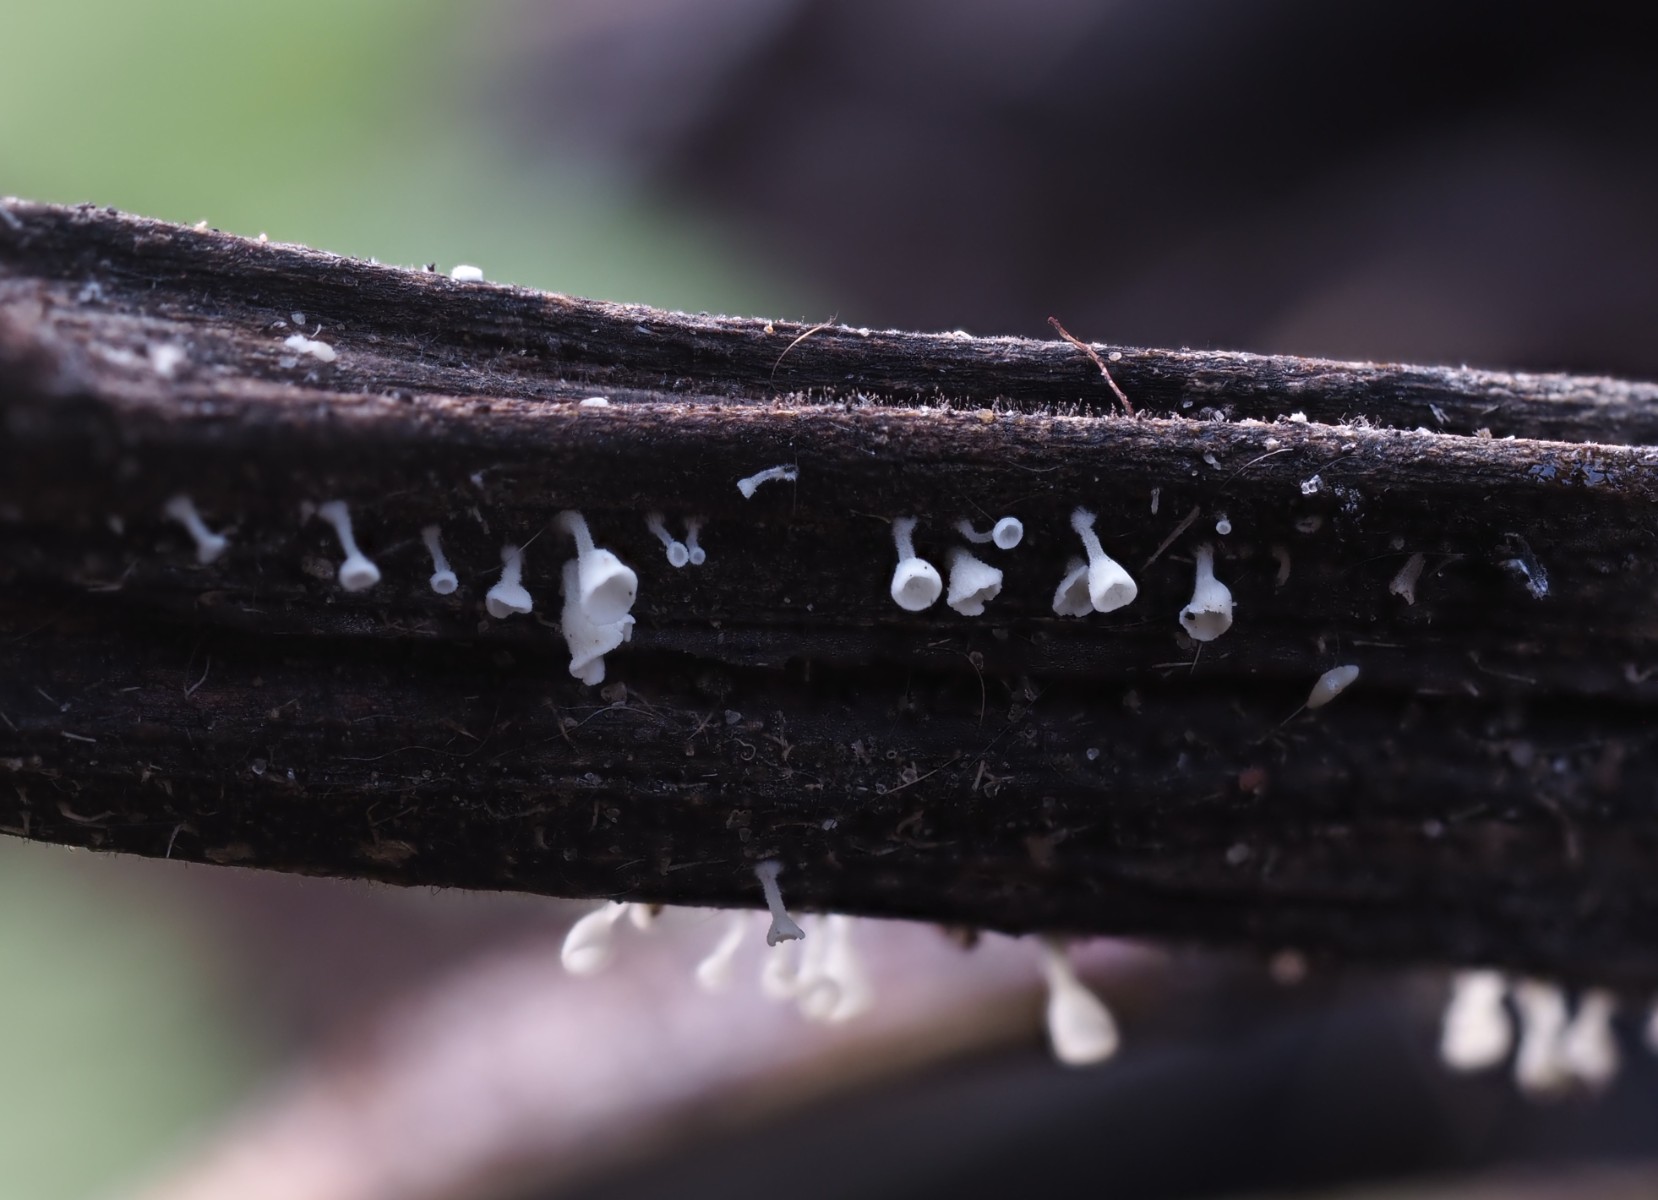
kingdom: Fungi
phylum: Basidiomycota
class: Agaricomycetes
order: Agaricales
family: Marasmiaceae
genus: Calyptella
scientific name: Calyptella capula
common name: hvidlig nældehue
